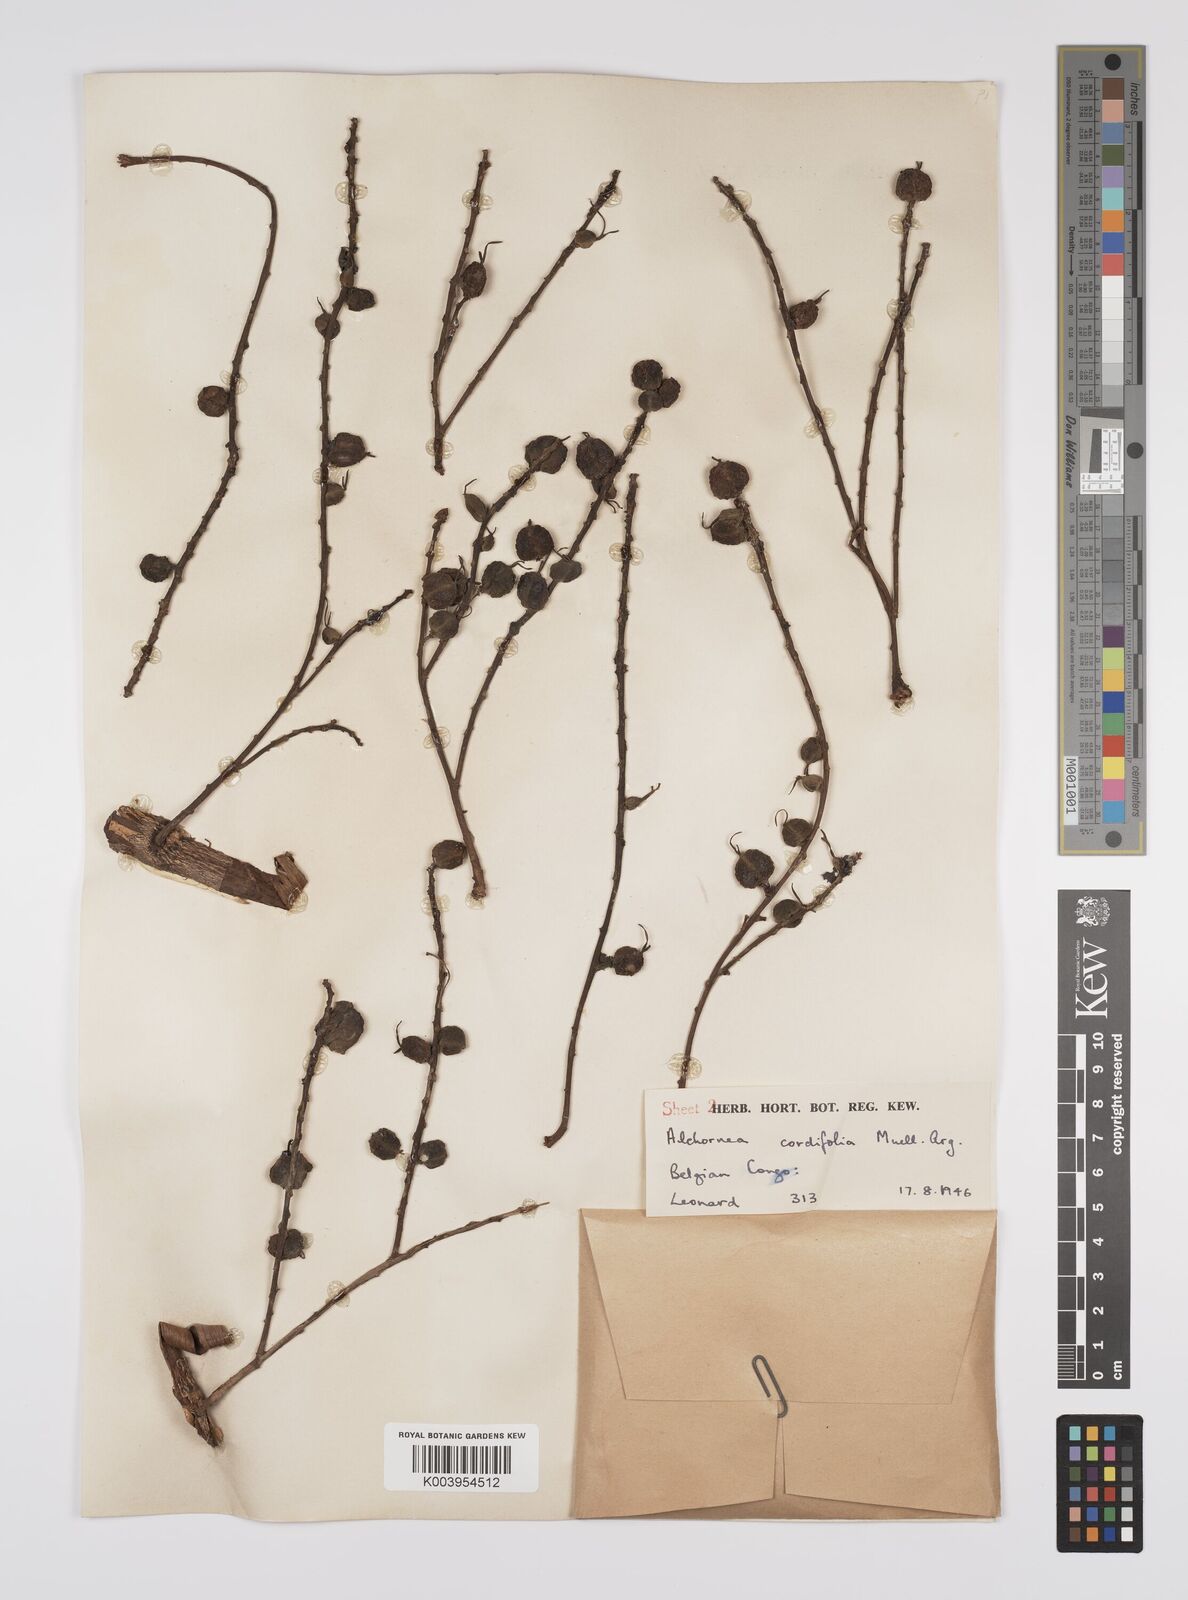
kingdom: Plantae
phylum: Tracheophyta
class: Magnoliopsida
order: Malpighiales
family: Euphorbiaceae
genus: Alchornea
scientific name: Alchornea cordifolia
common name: Christmasbush
